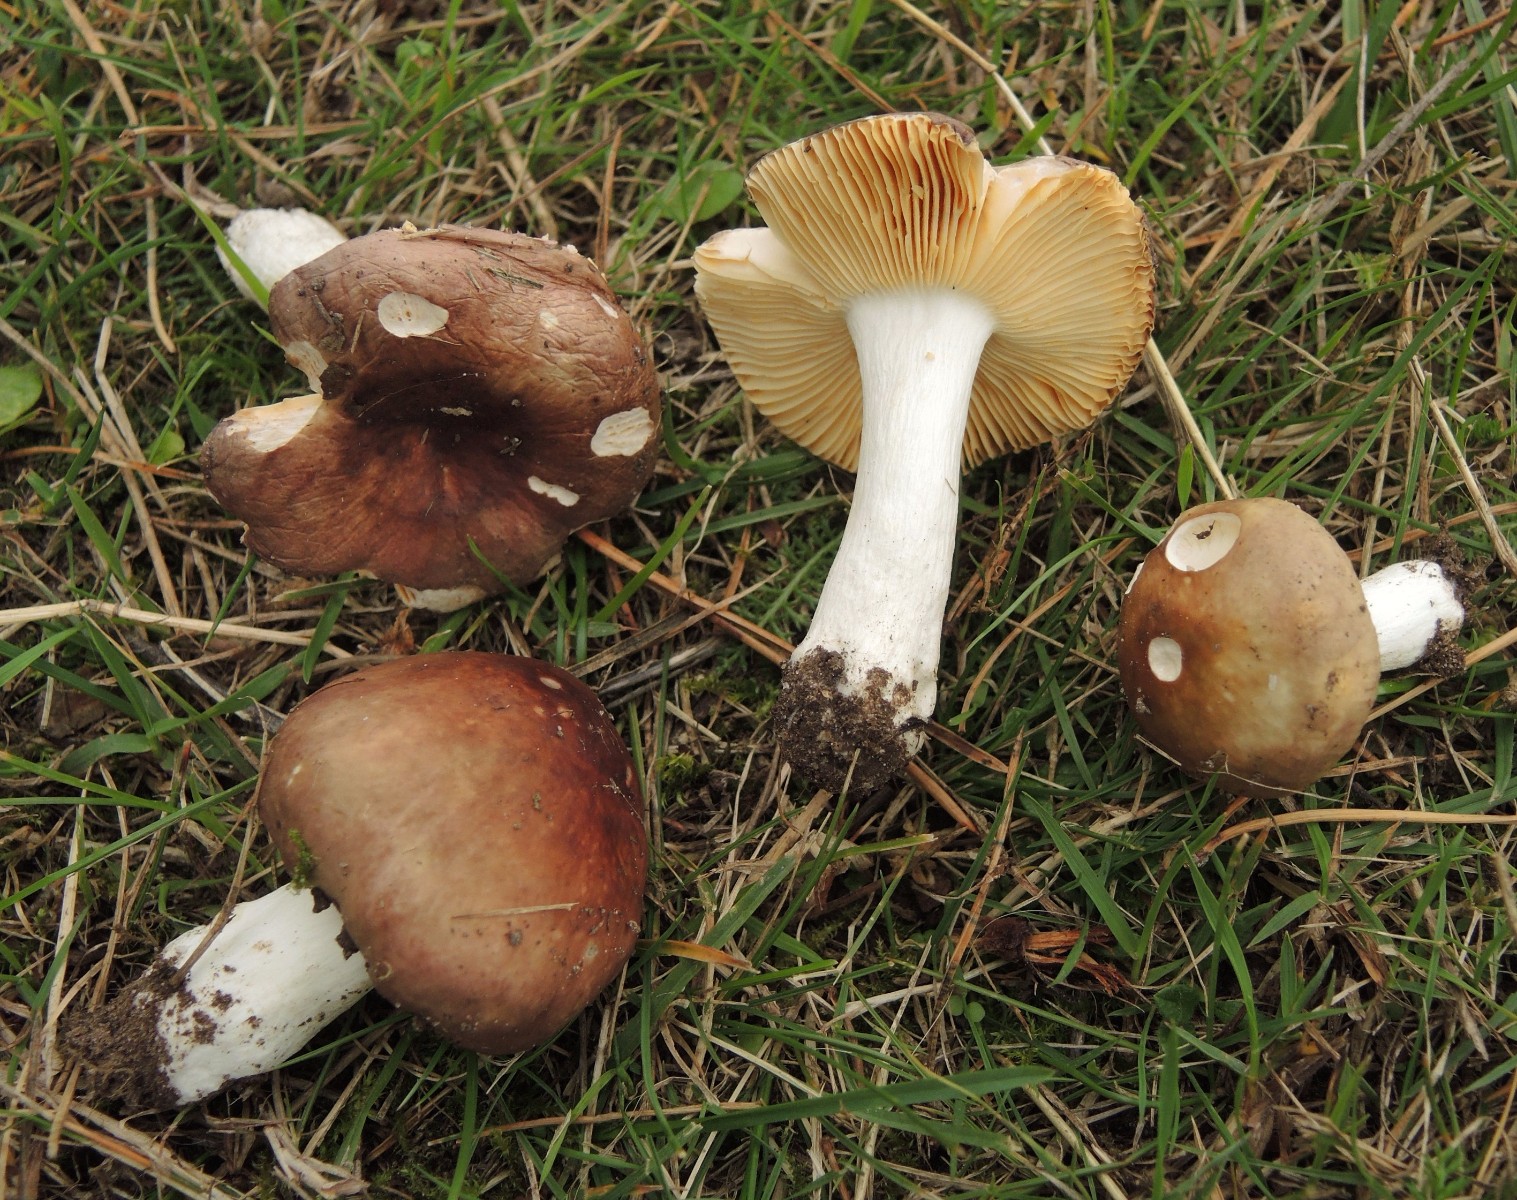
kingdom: Fungi
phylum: Basidiomycota
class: Agaricomycetes
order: Russulales
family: Russulaceae
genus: Russula
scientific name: Russula cessans
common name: fyrre-skørhat
